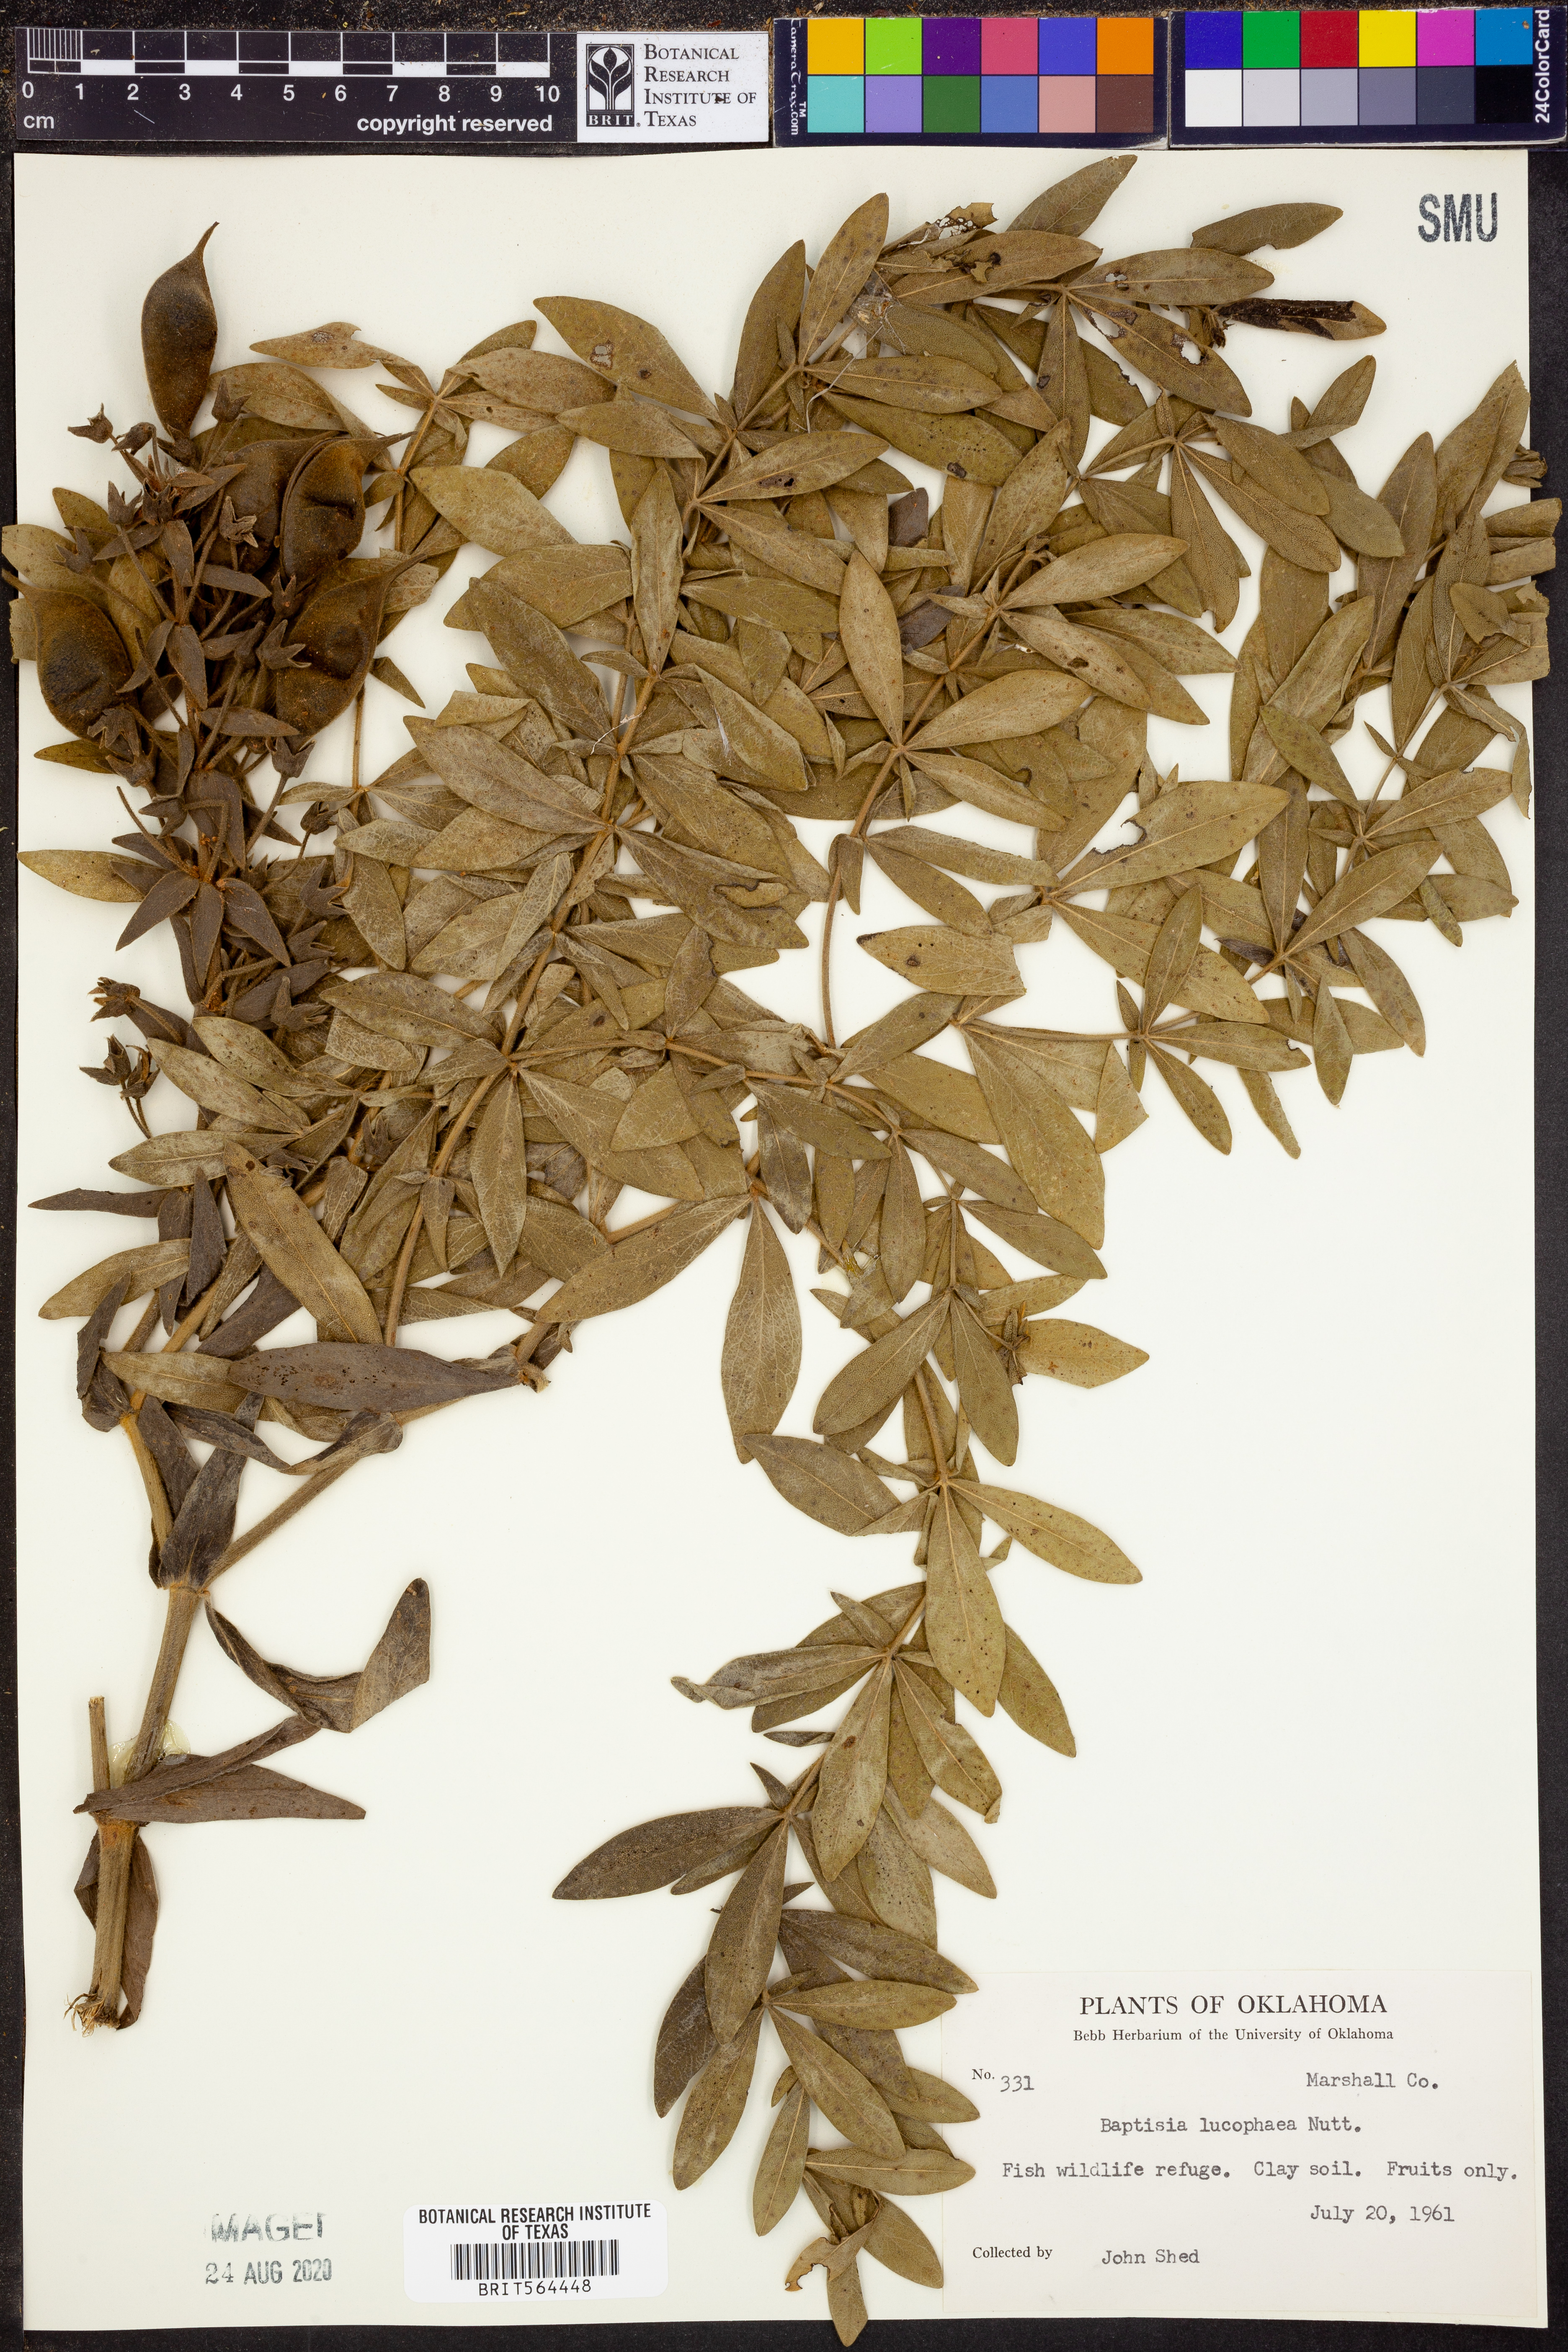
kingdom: Plantae
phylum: Tracheophyta
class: Magnoliopsida
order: Fabales
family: Fabaceae
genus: Baptisia
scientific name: Baptisia bracteata
